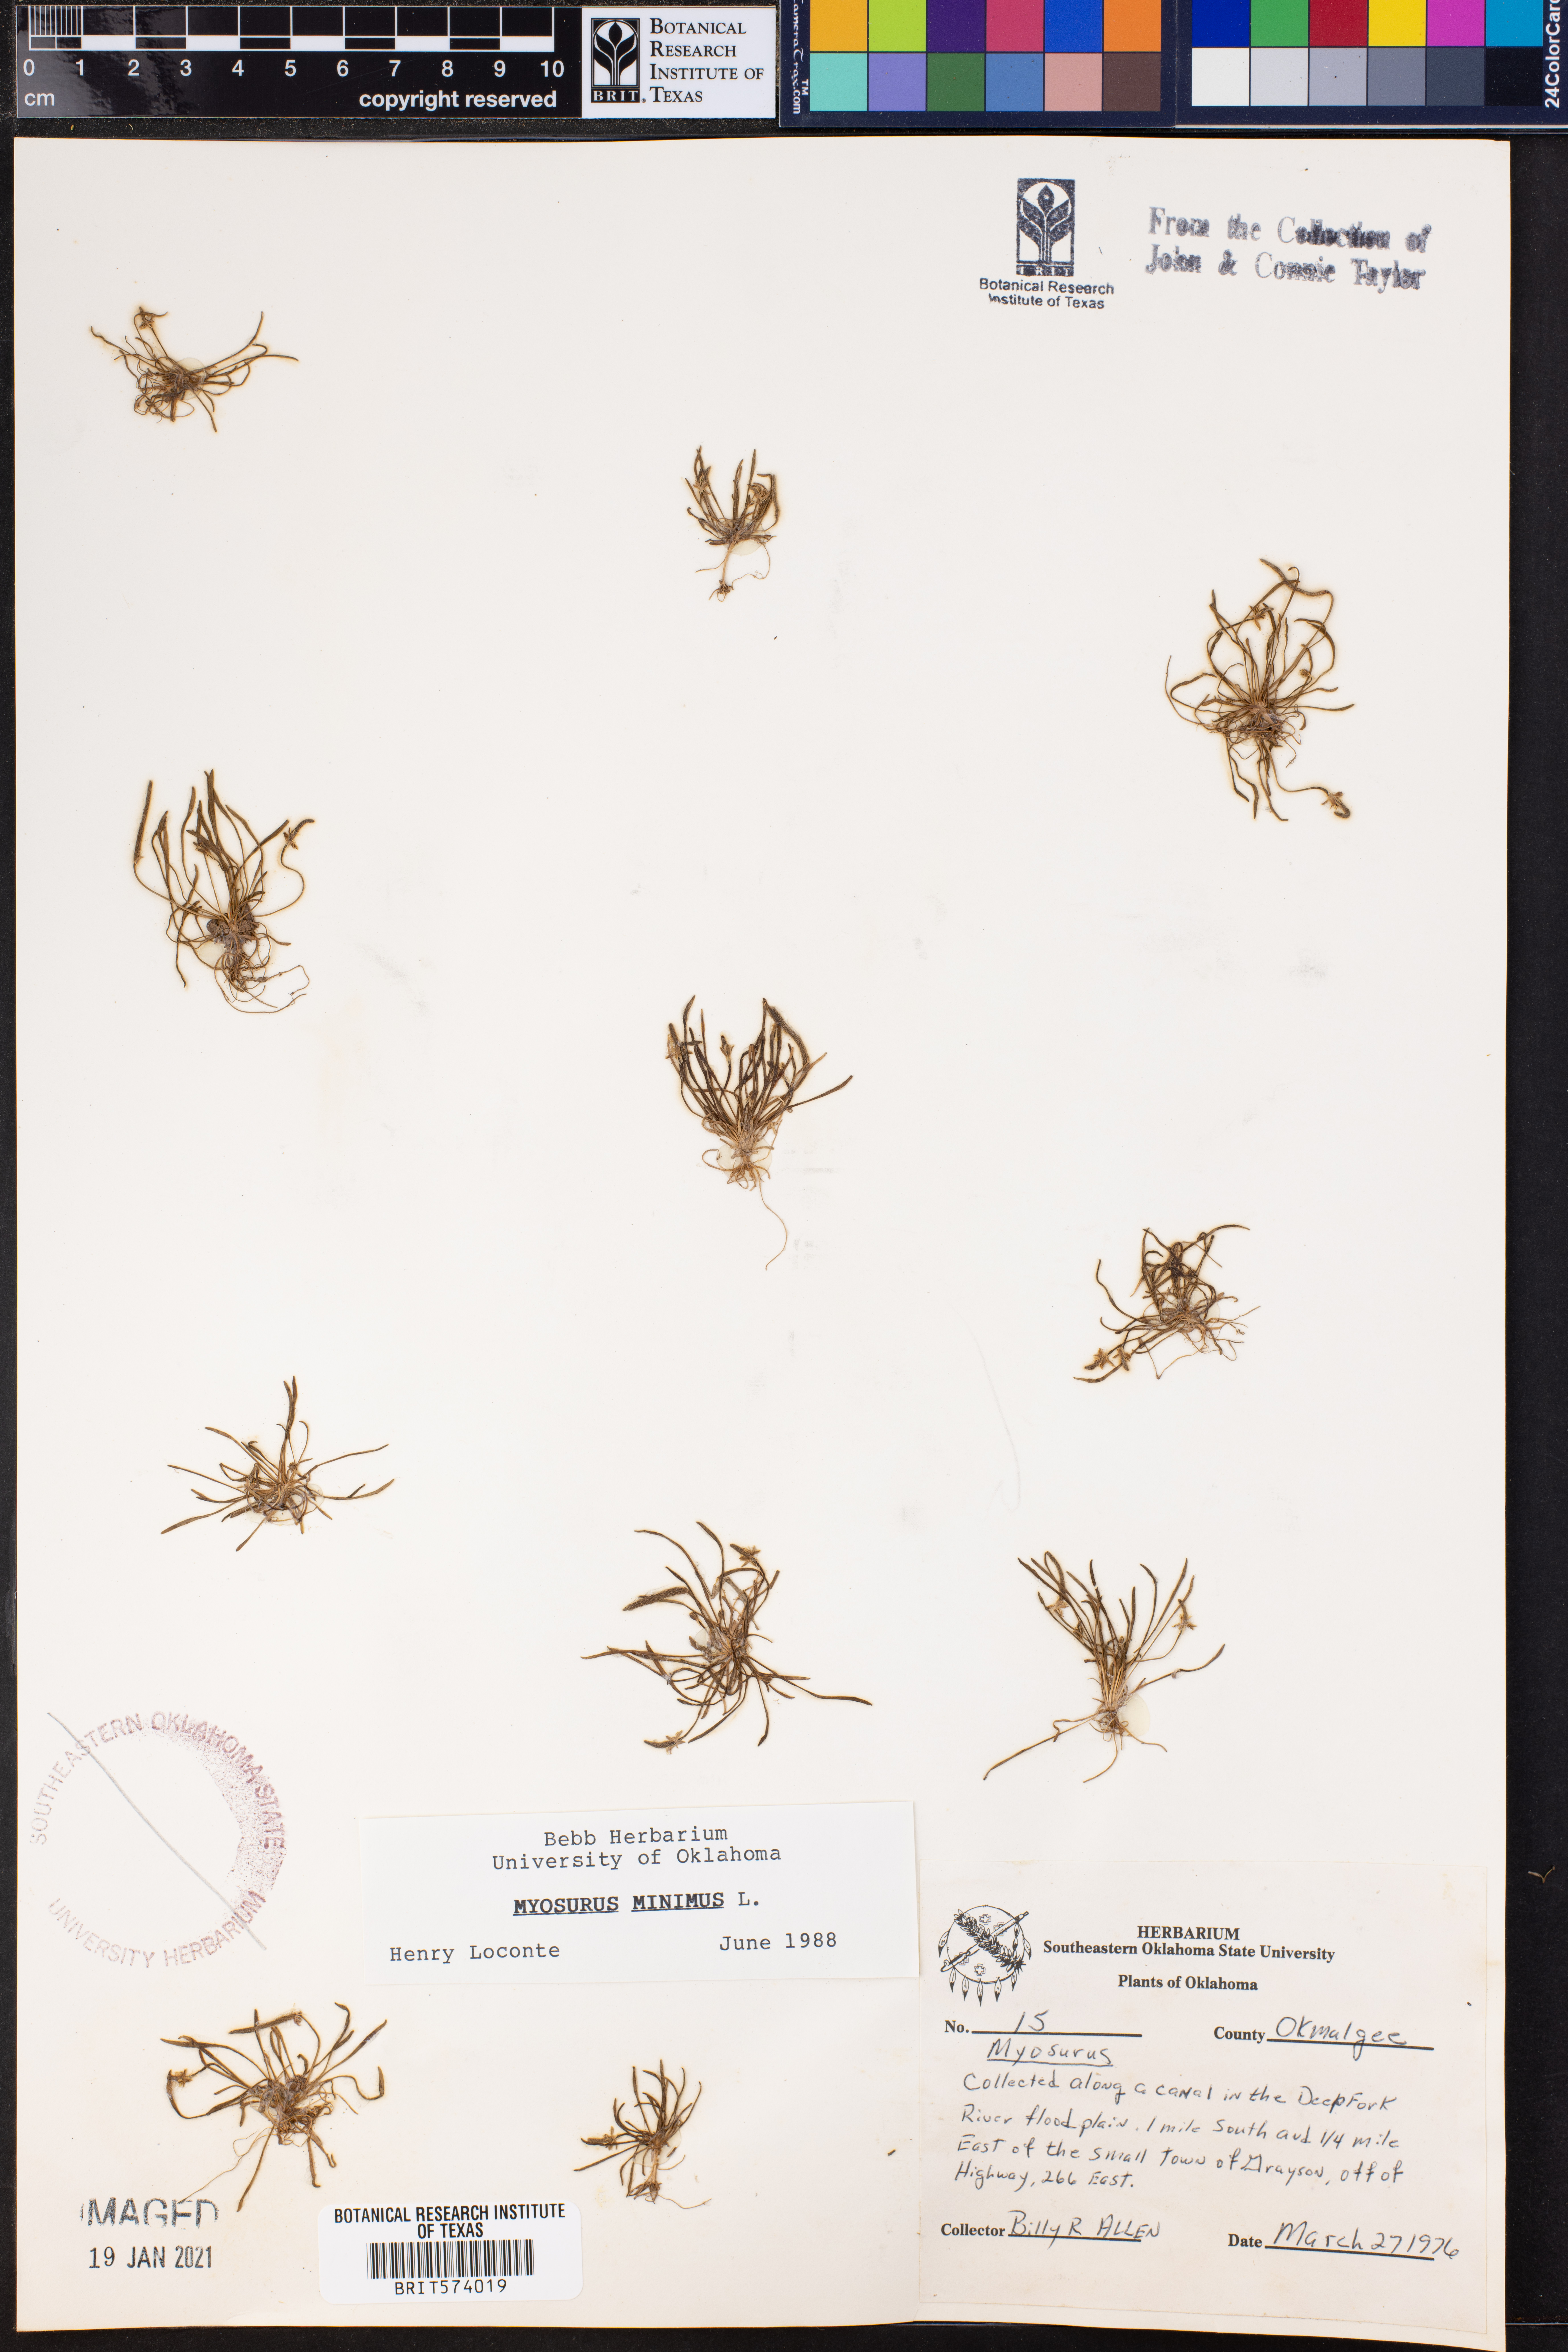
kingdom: Plantae
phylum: Tracheophyta
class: Magnoliopsida
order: Ranunculales
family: Ranunculaceae
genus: Myosurus
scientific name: Myosurus
